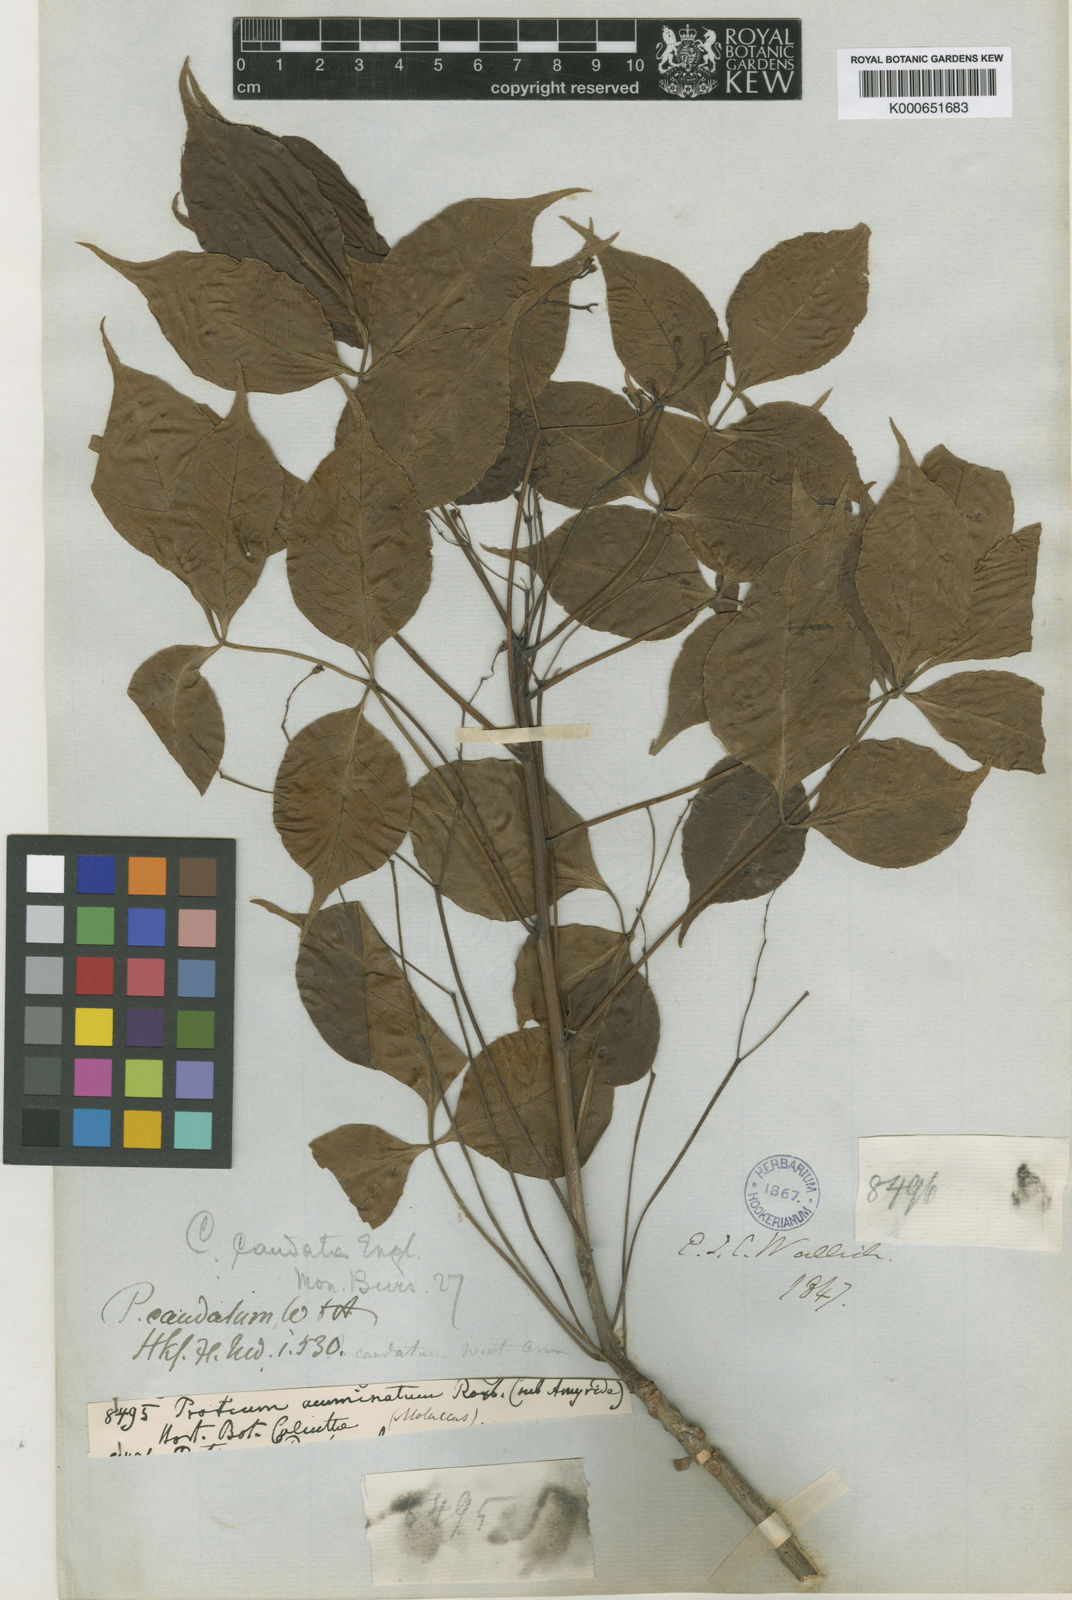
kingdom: Plantae
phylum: Tracheophyta
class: Magnoliopsida
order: Sapindales
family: Burseraceae
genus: Commiphora
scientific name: Commiphora caudata
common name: Hill-mango
